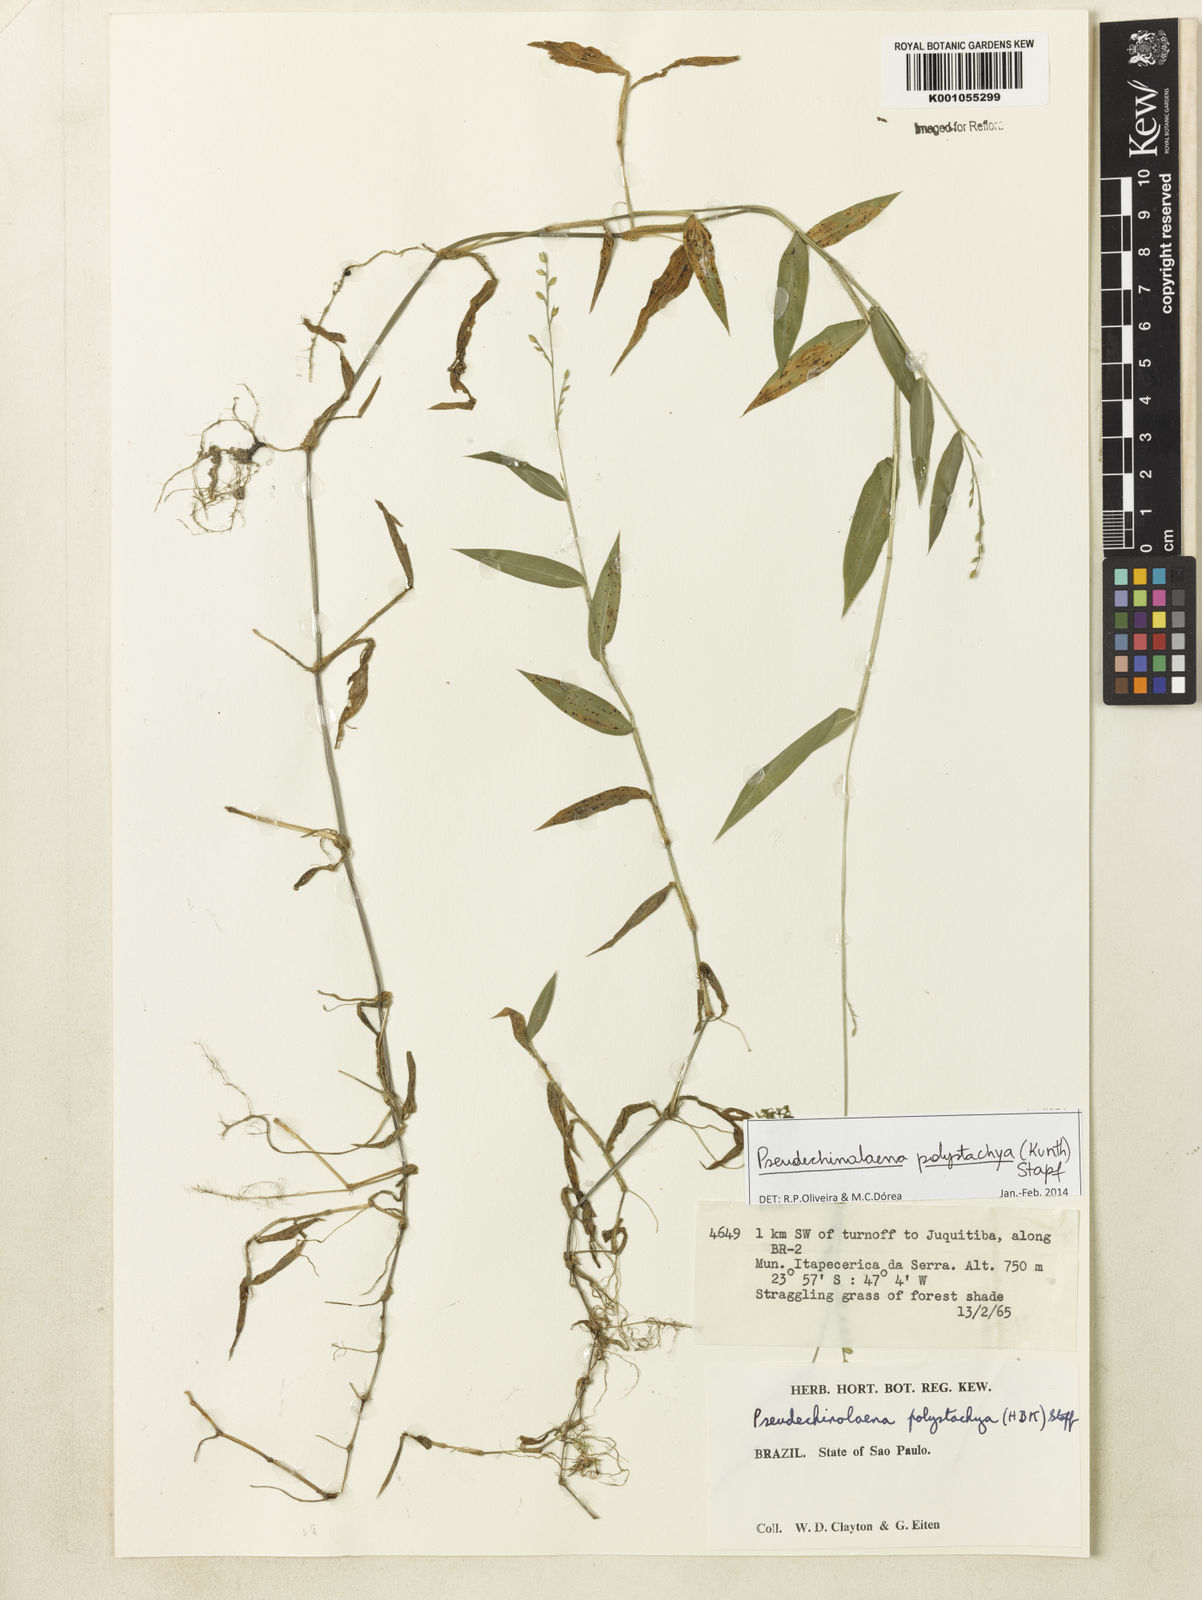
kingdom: Plantae
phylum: Tracheophyta
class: Liliopsida
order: Poales
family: Poaceae
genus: Pseudechinolaena
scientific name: Pseudechinolaena polystachya
